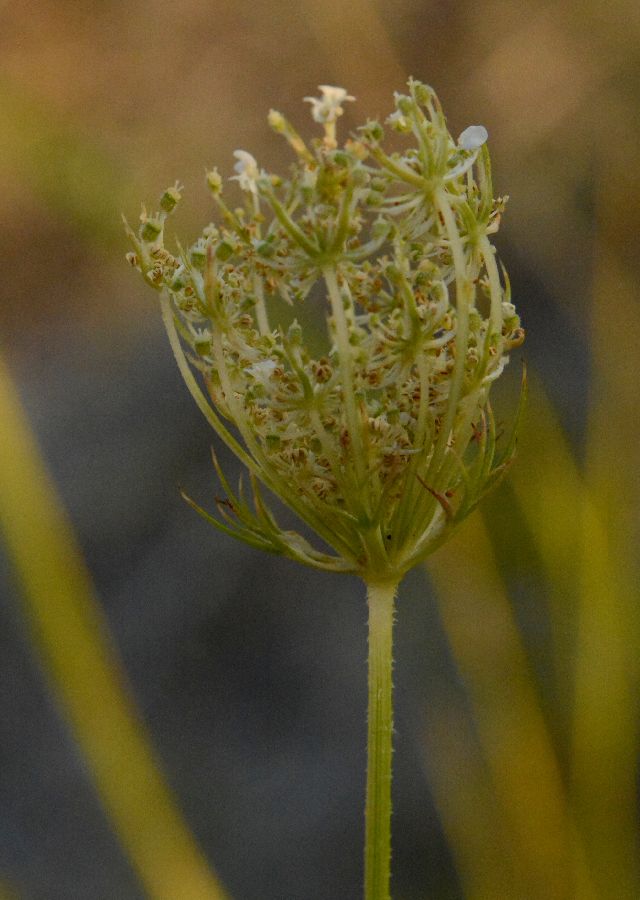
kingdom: Plantae
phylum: Tracheophyta
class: Magnoliopsida
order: Apiales
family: Apiaceae
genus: Daucus
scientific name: Daucus carota
